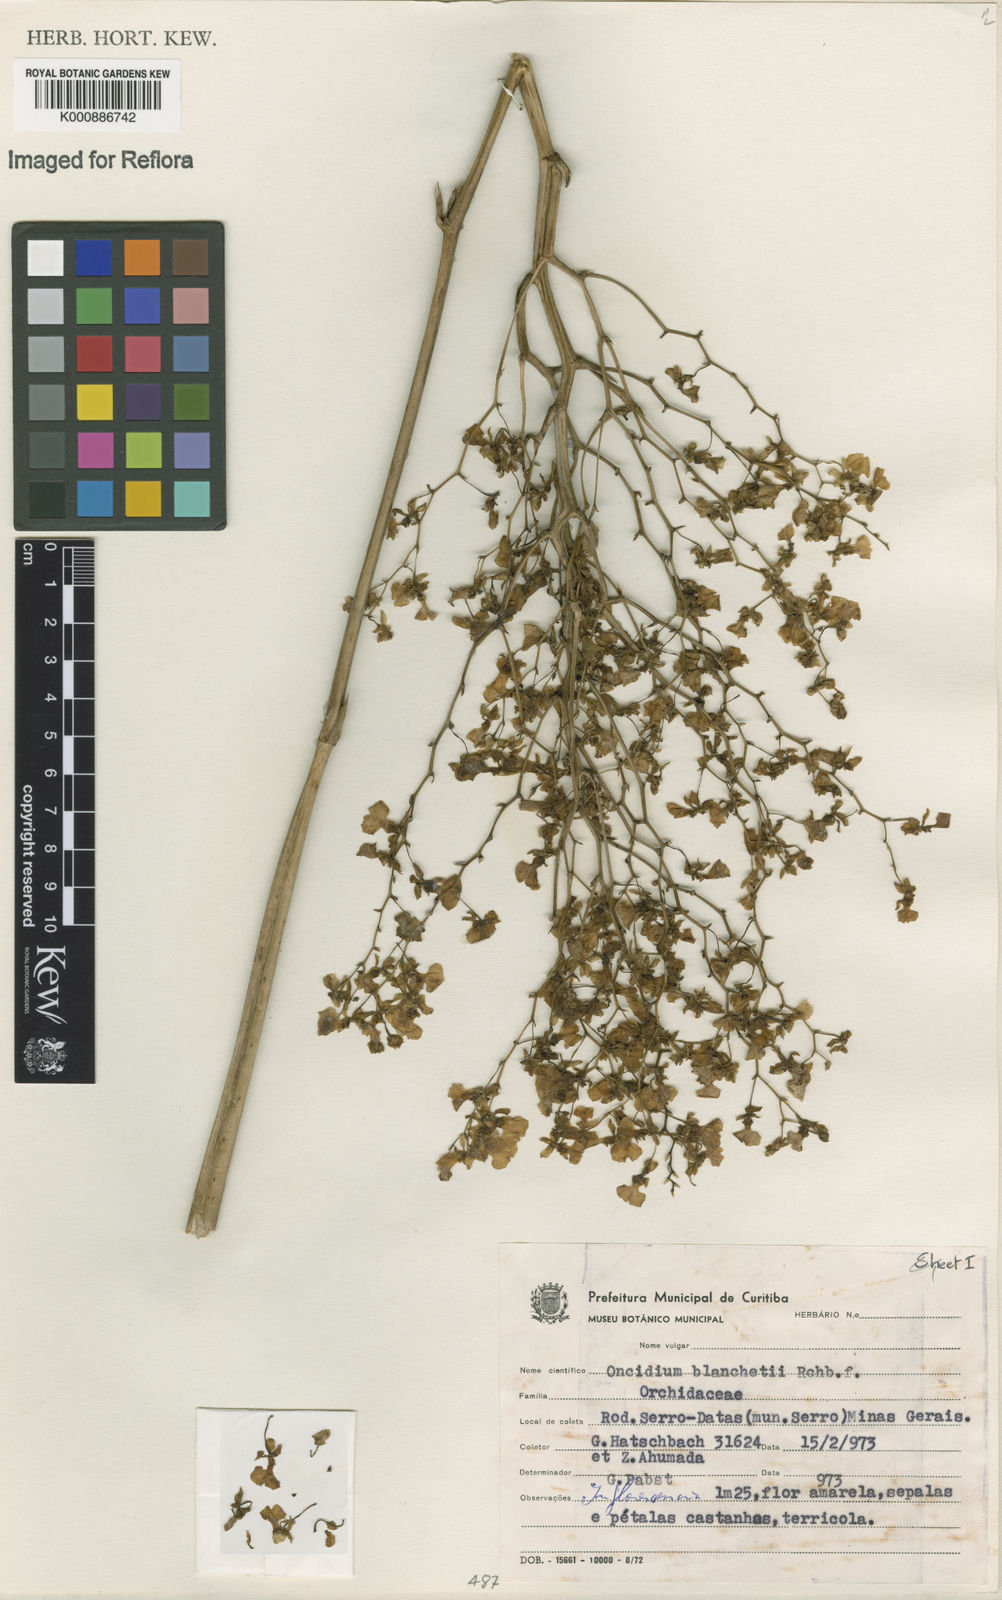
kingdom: Plantae
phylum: Tracheophyta
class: Liliopsida
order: Asparagales
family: Orchidaceae
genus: Gomesa
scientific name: Gomesa ramosa
